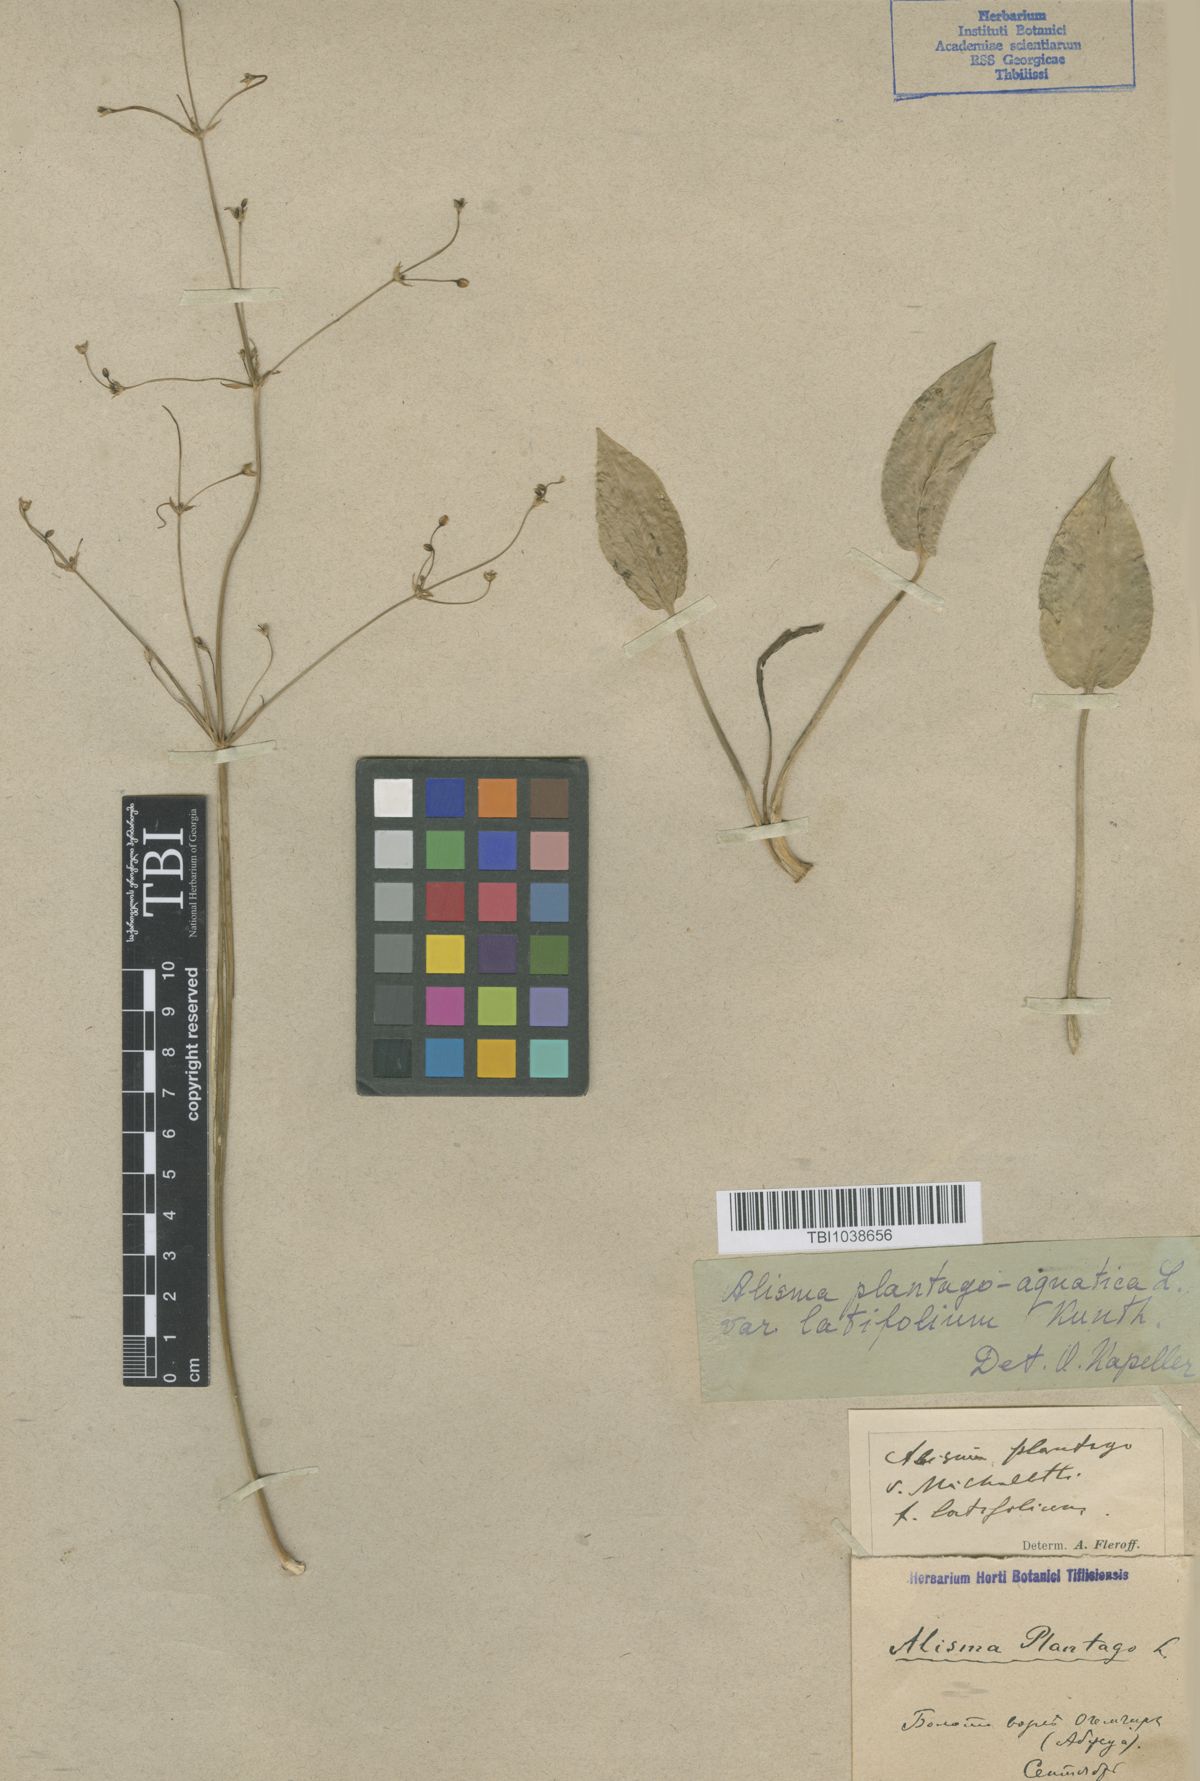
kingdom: Plantae
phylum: Tracheophyta
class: Liliopsida
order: Alismatales
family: Alismataceae
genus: Alisma
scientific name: Alisma plantago-aquatica
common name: Water-plantain
